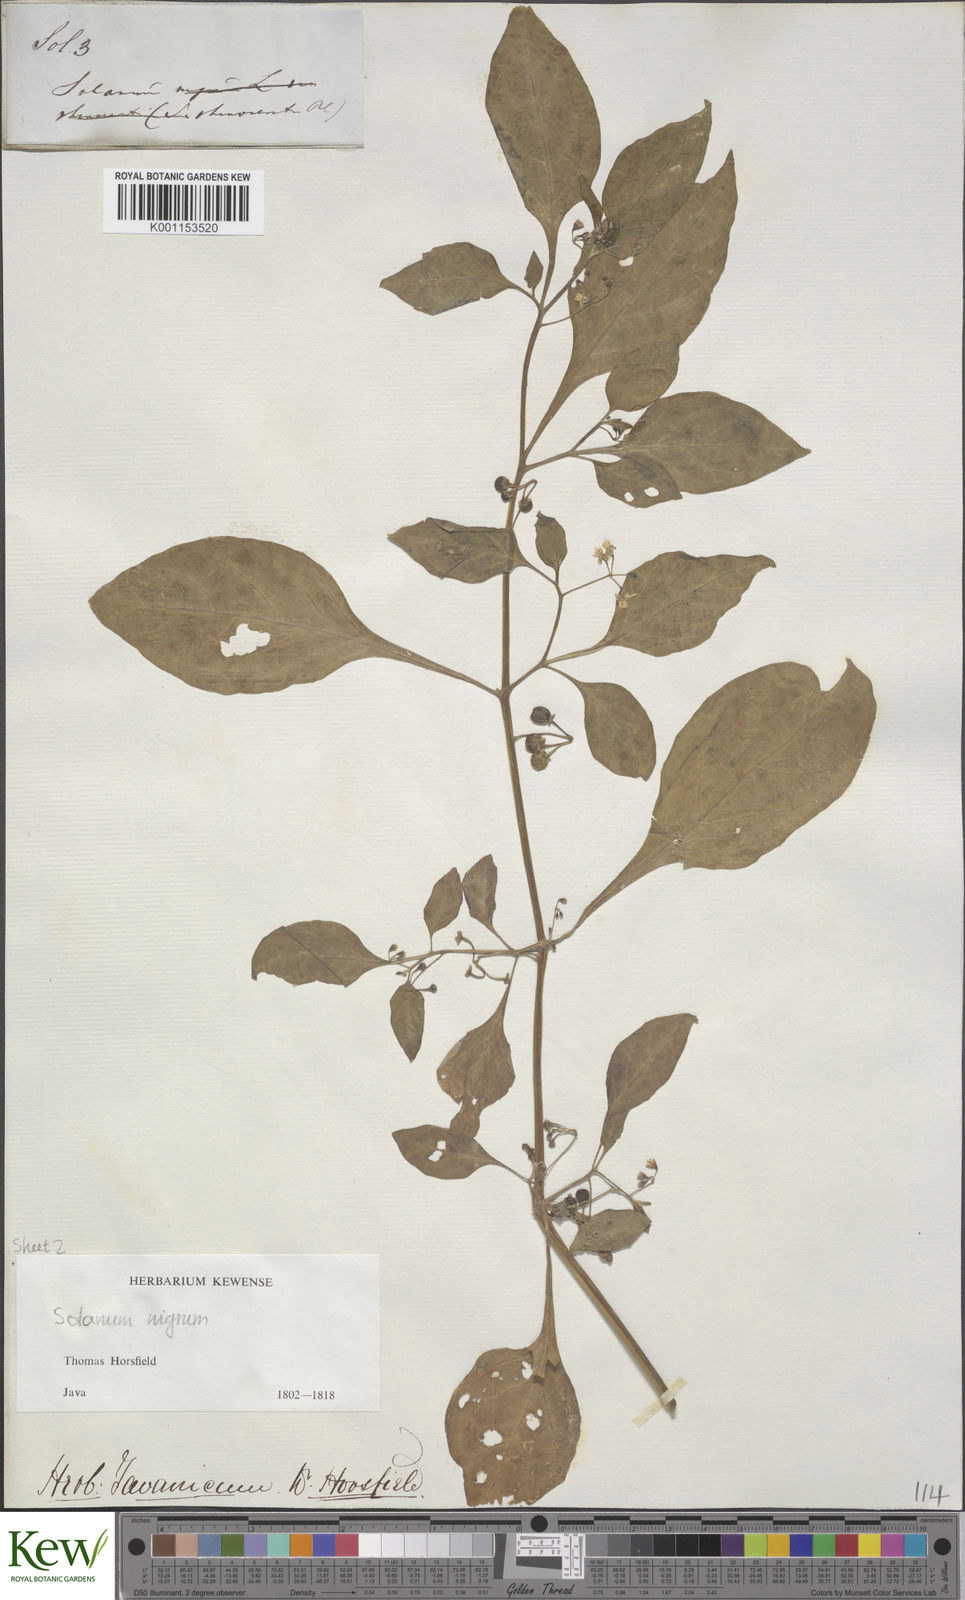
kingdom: Plantae
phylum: Tracheophyta
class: Magnoliopsida
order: Solanales
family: Solanaceae
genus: Solanum
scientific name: Solanum nigrum
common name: Black nightshade
